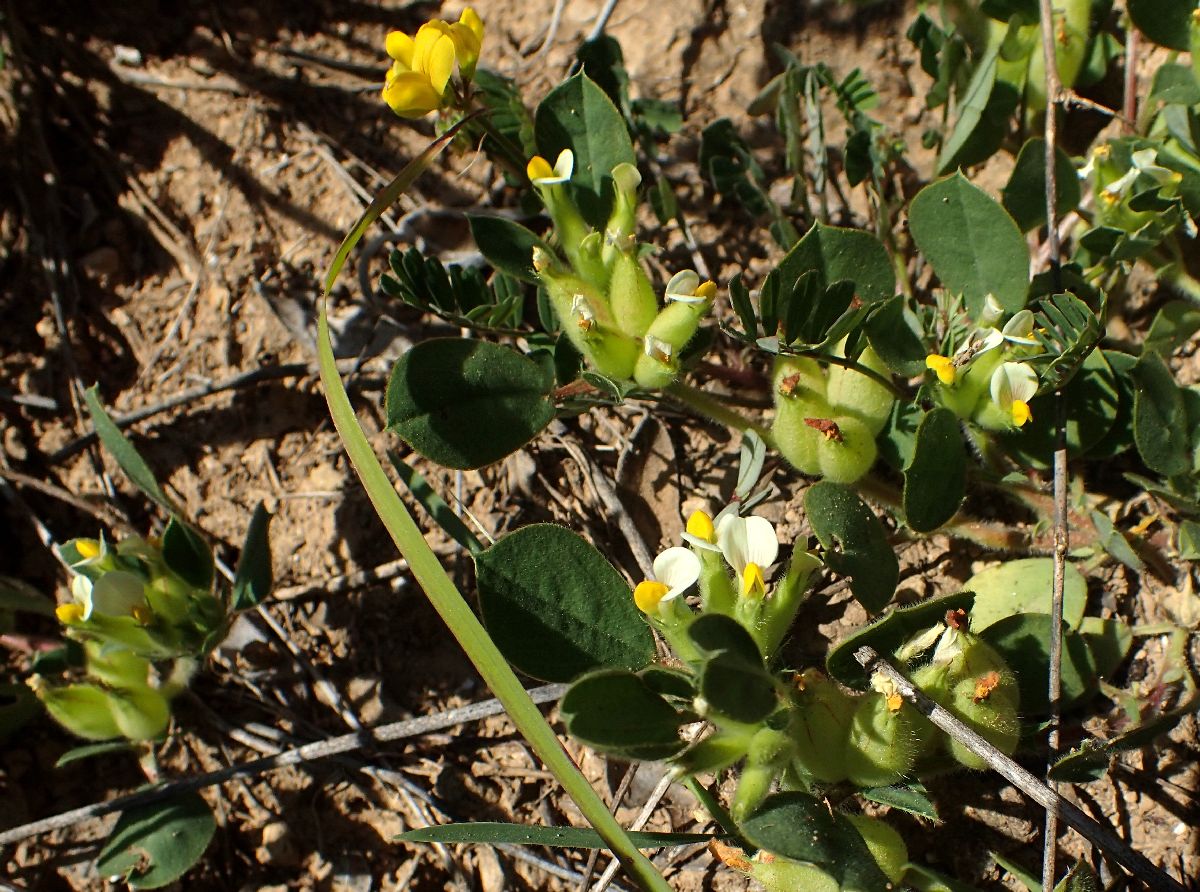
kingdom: Plantae
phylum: Tracheophyta
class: Magnoliopsida
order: Fabales
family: Fabaceae
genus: Tripodion
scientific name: Tripodion tetraphyllum
